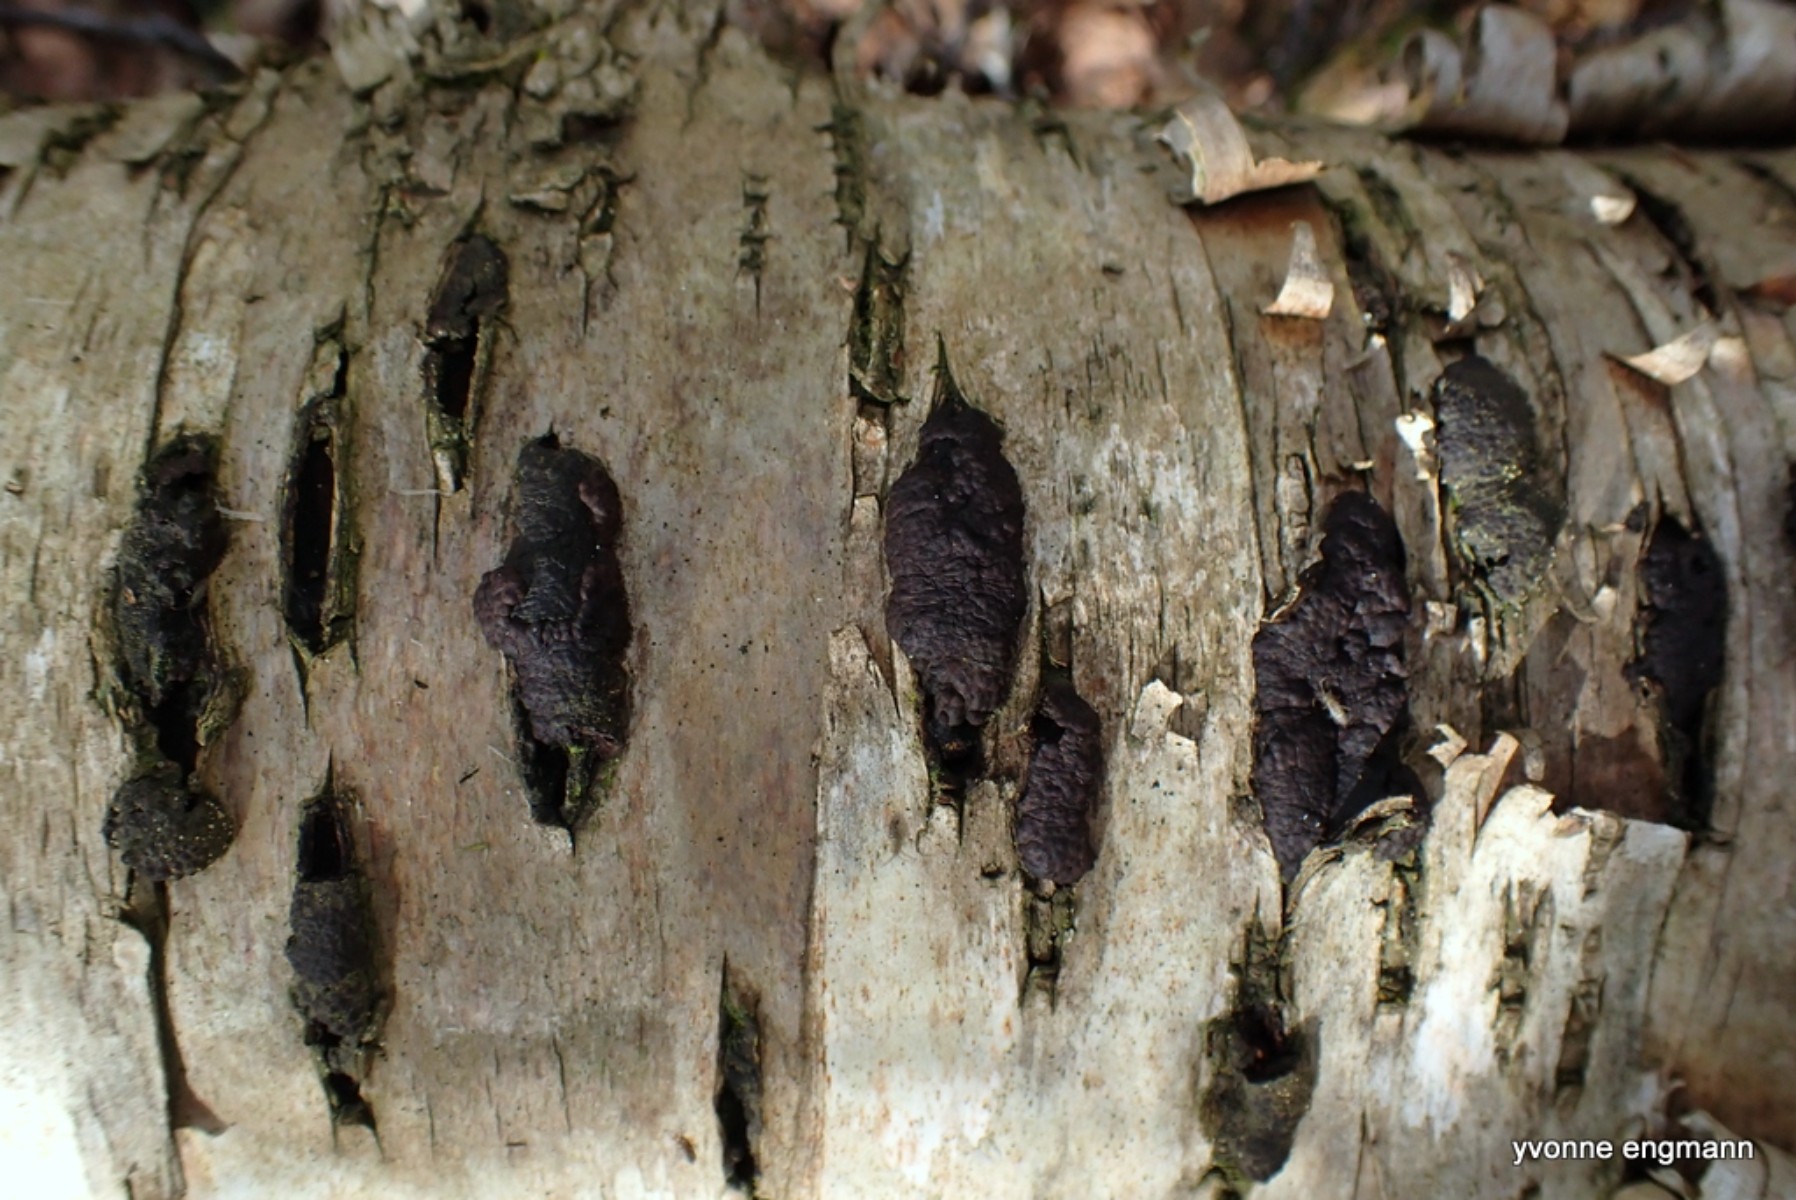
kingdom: Fungi
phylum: Ascomycota
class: Sordariomycetes
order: Xylariales
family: Hypoxylaceae
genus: Jackrogersella
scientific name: Jackrogersella multiformis
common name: foranderlig kulbær
